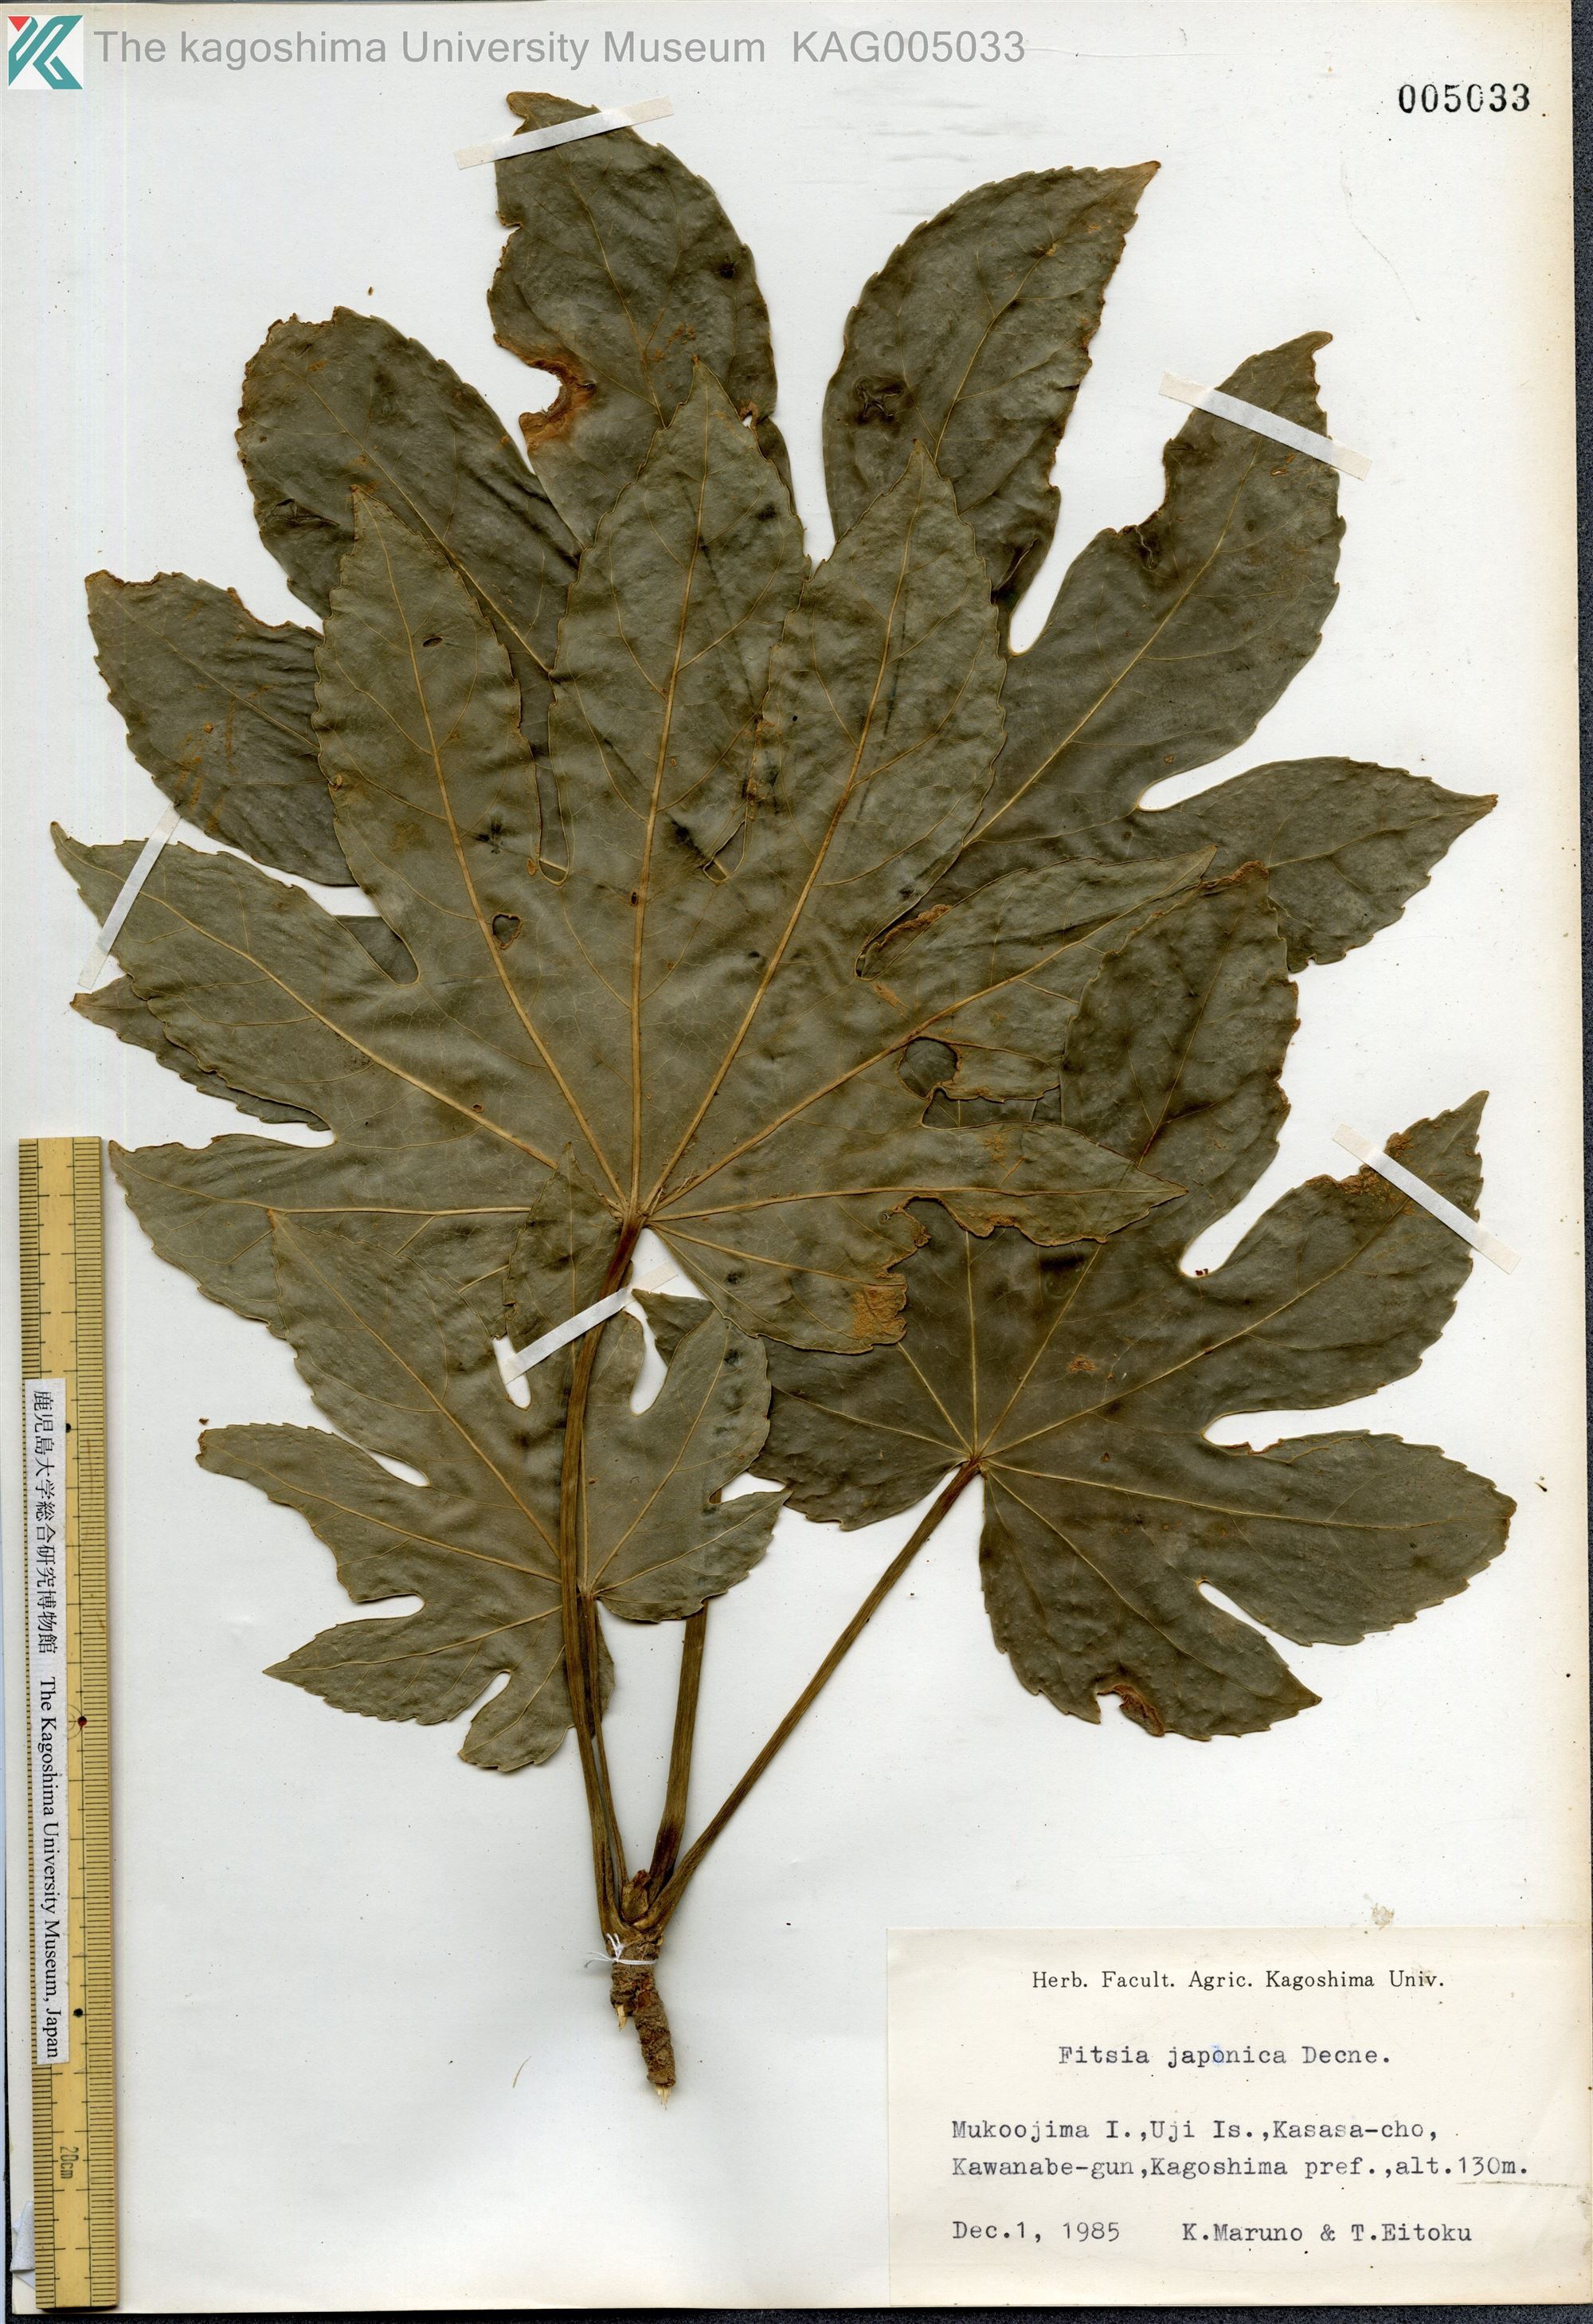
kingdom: Plantae
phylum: Tracheophyta
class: Magnoliopsida
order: Apiales
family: Araliaceae
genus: Fatsia
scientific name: Fatsia japonica
